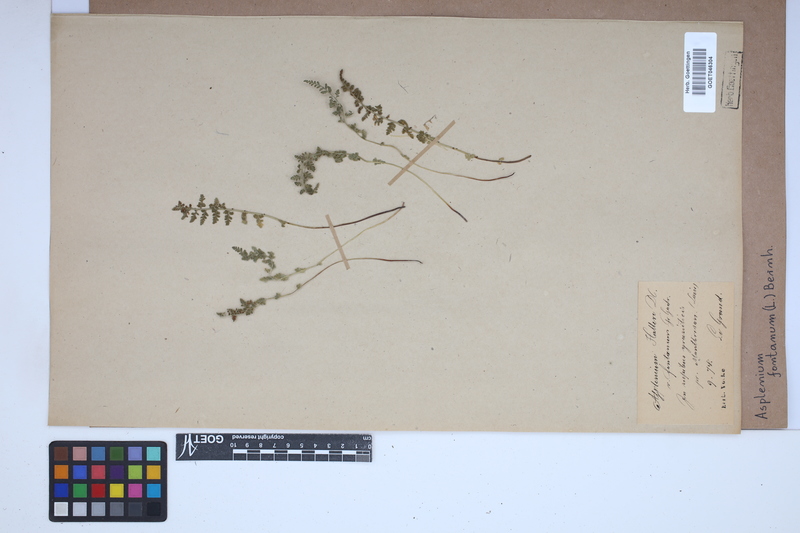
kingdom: Plantae
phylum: Tracheophyta
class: Polypodiopsida
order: Polypodiales
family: Aspleniaceae
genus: Asplenium
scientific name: Asplenium fontanum
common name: Fountain spleenwort
